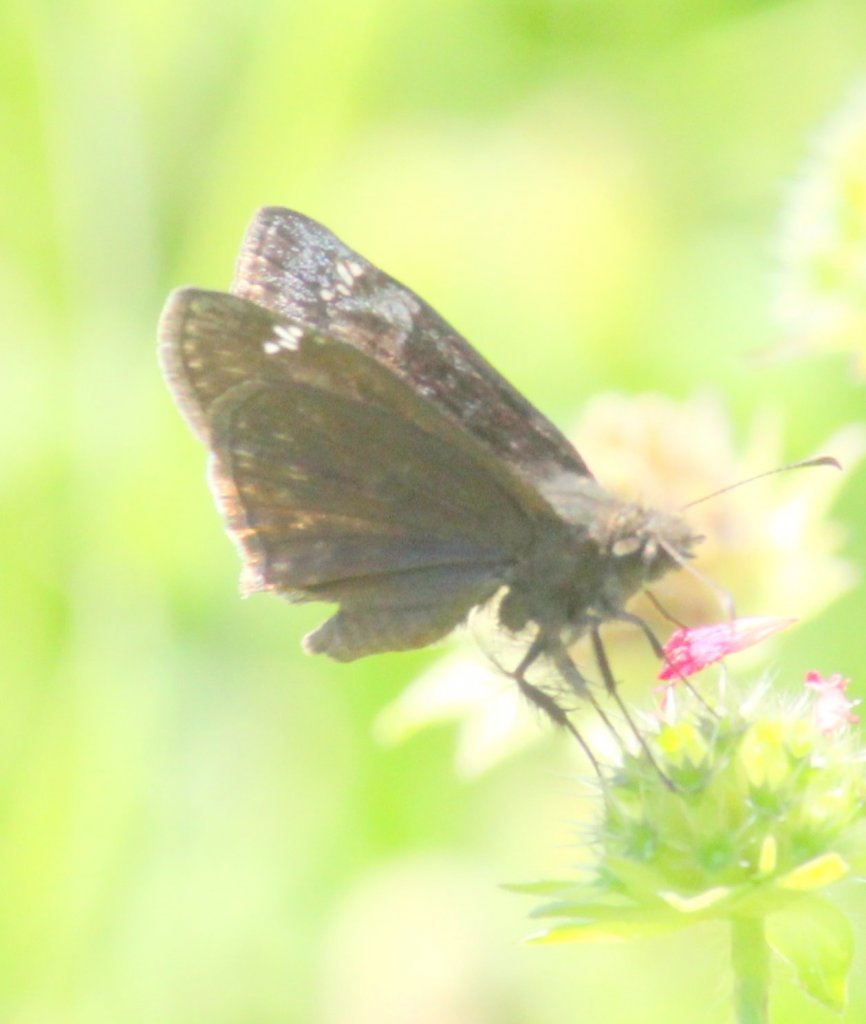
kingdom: Animalia
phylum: Arthropoda
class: Insecta
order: Lepidoptera
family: Hesperiidae
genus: Gesta
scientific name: Gesta
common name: Wild Indigo Duskywing
